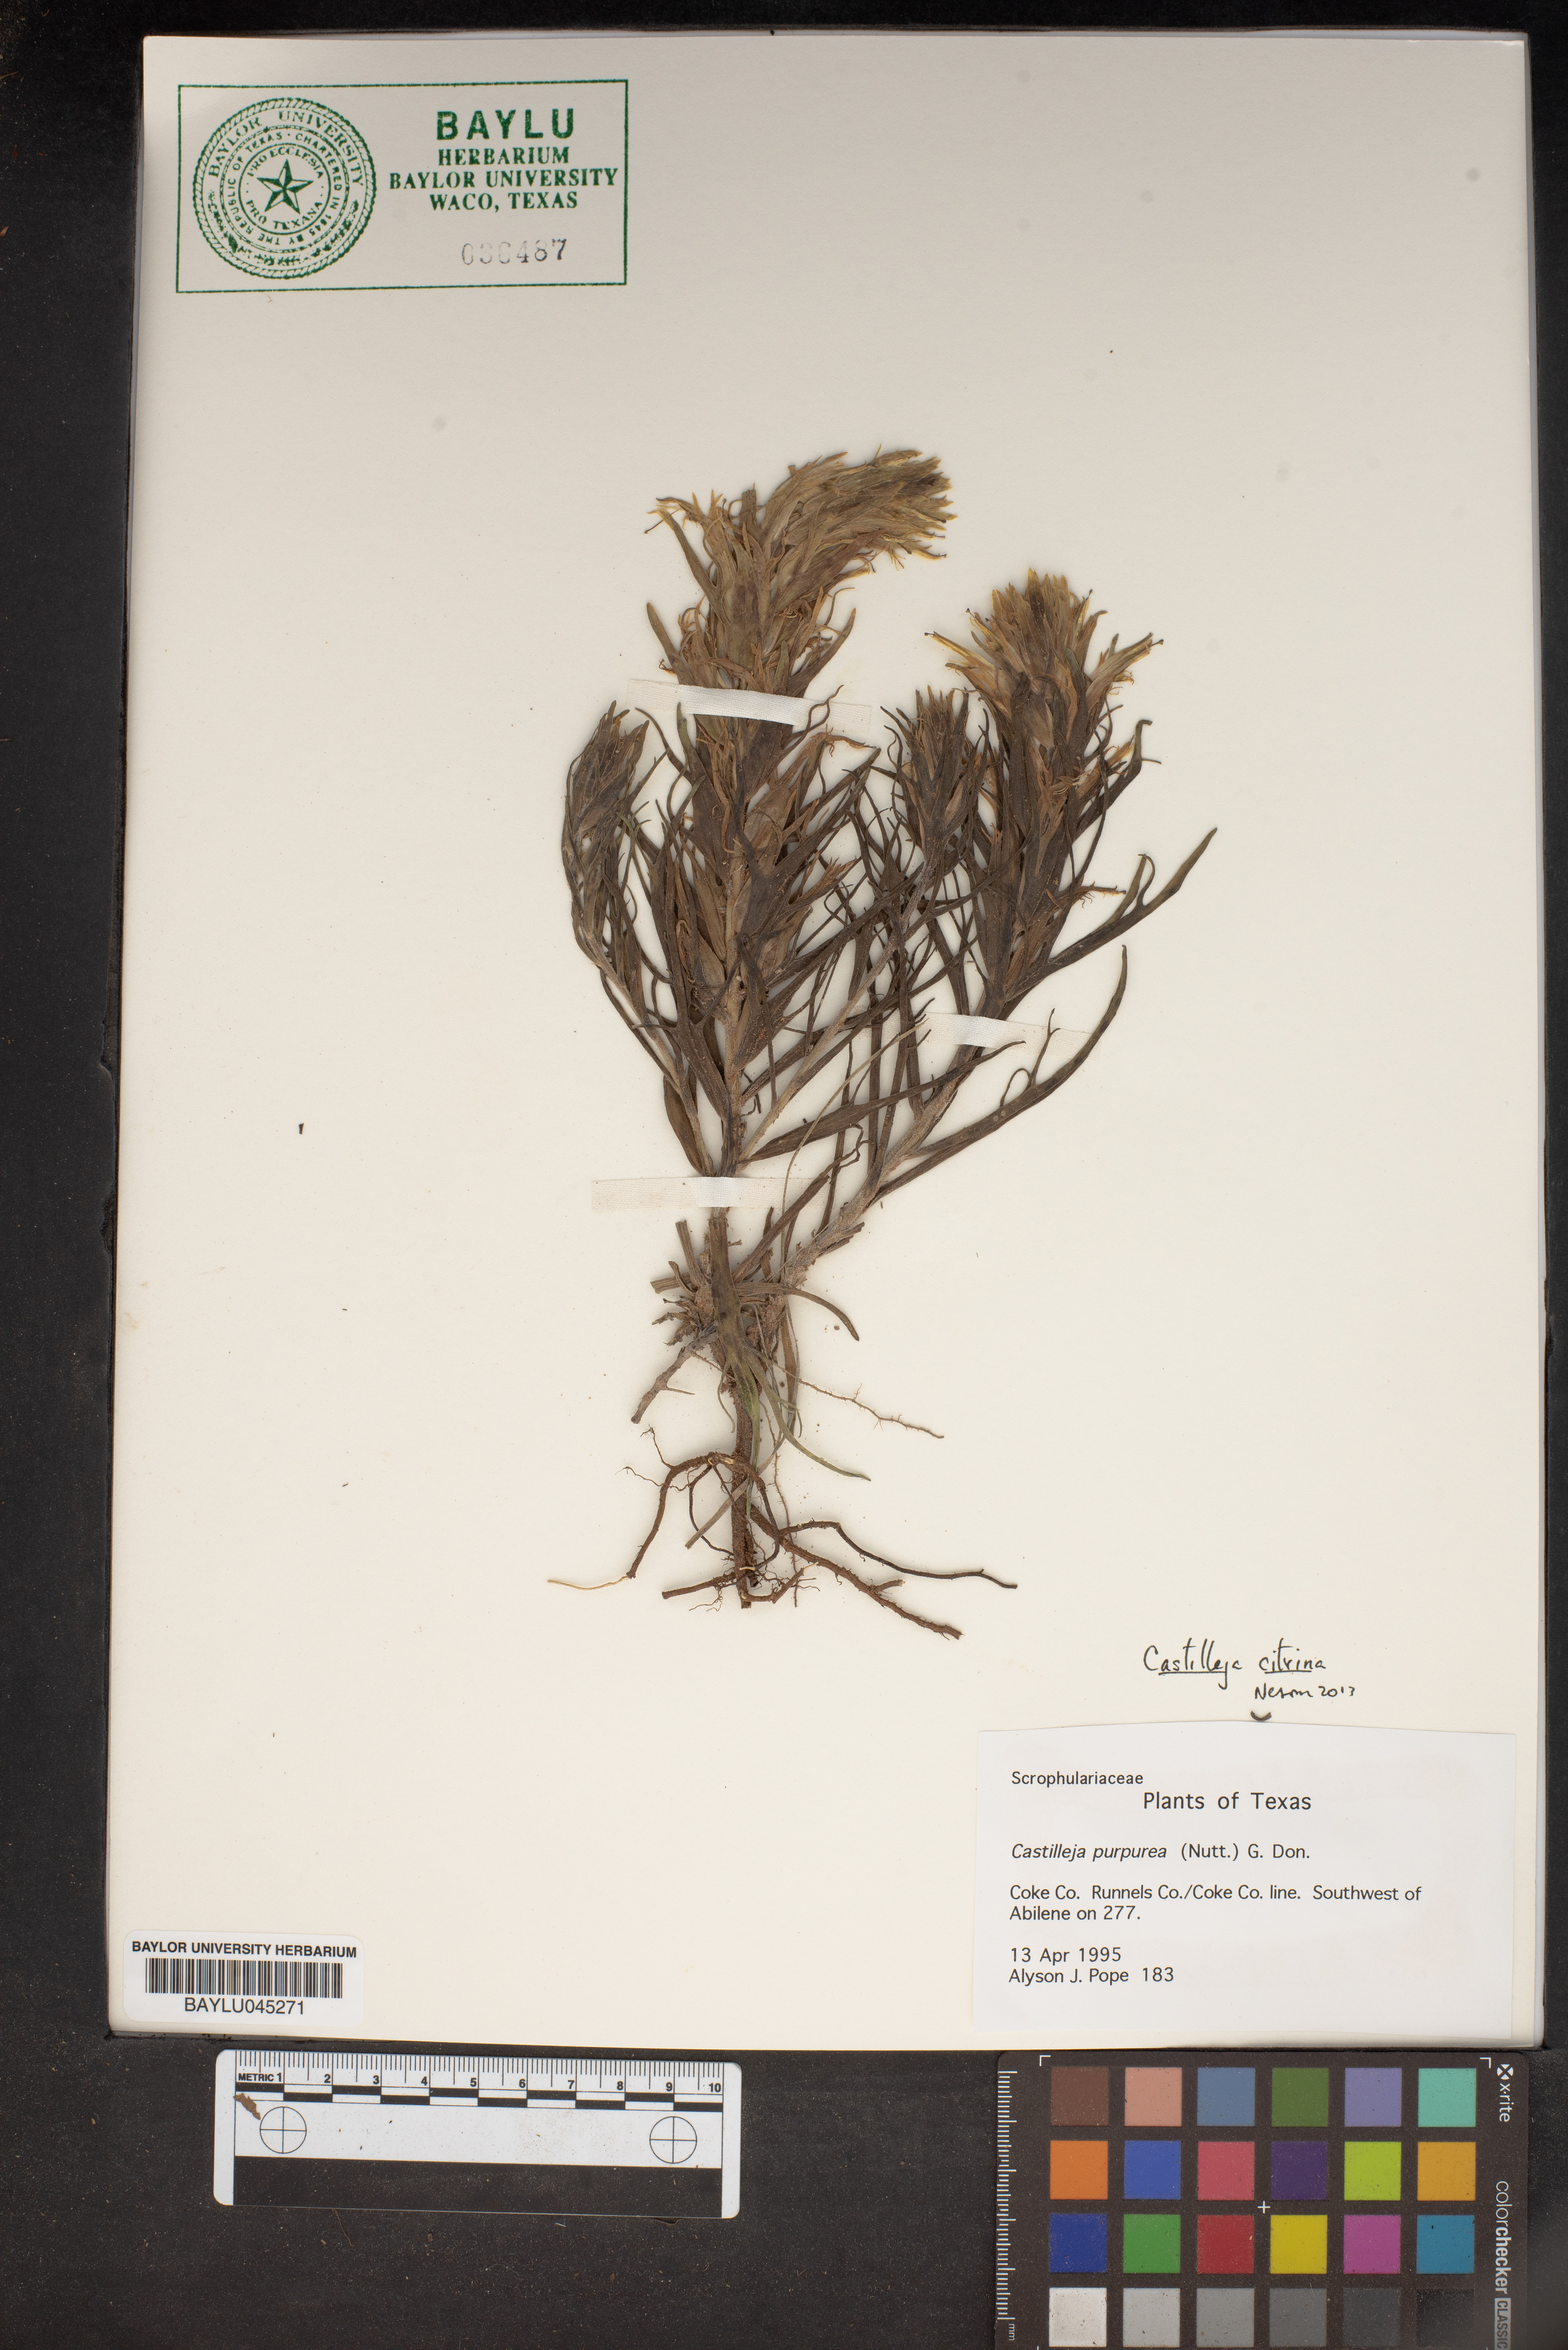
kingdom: Plantae
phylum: Tracheophyta
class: Magnoliopsida
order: Lamiales
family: Orobanchaceae
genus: Castilleja
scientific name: Castilleja purpurea
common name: Plains paintbrush
